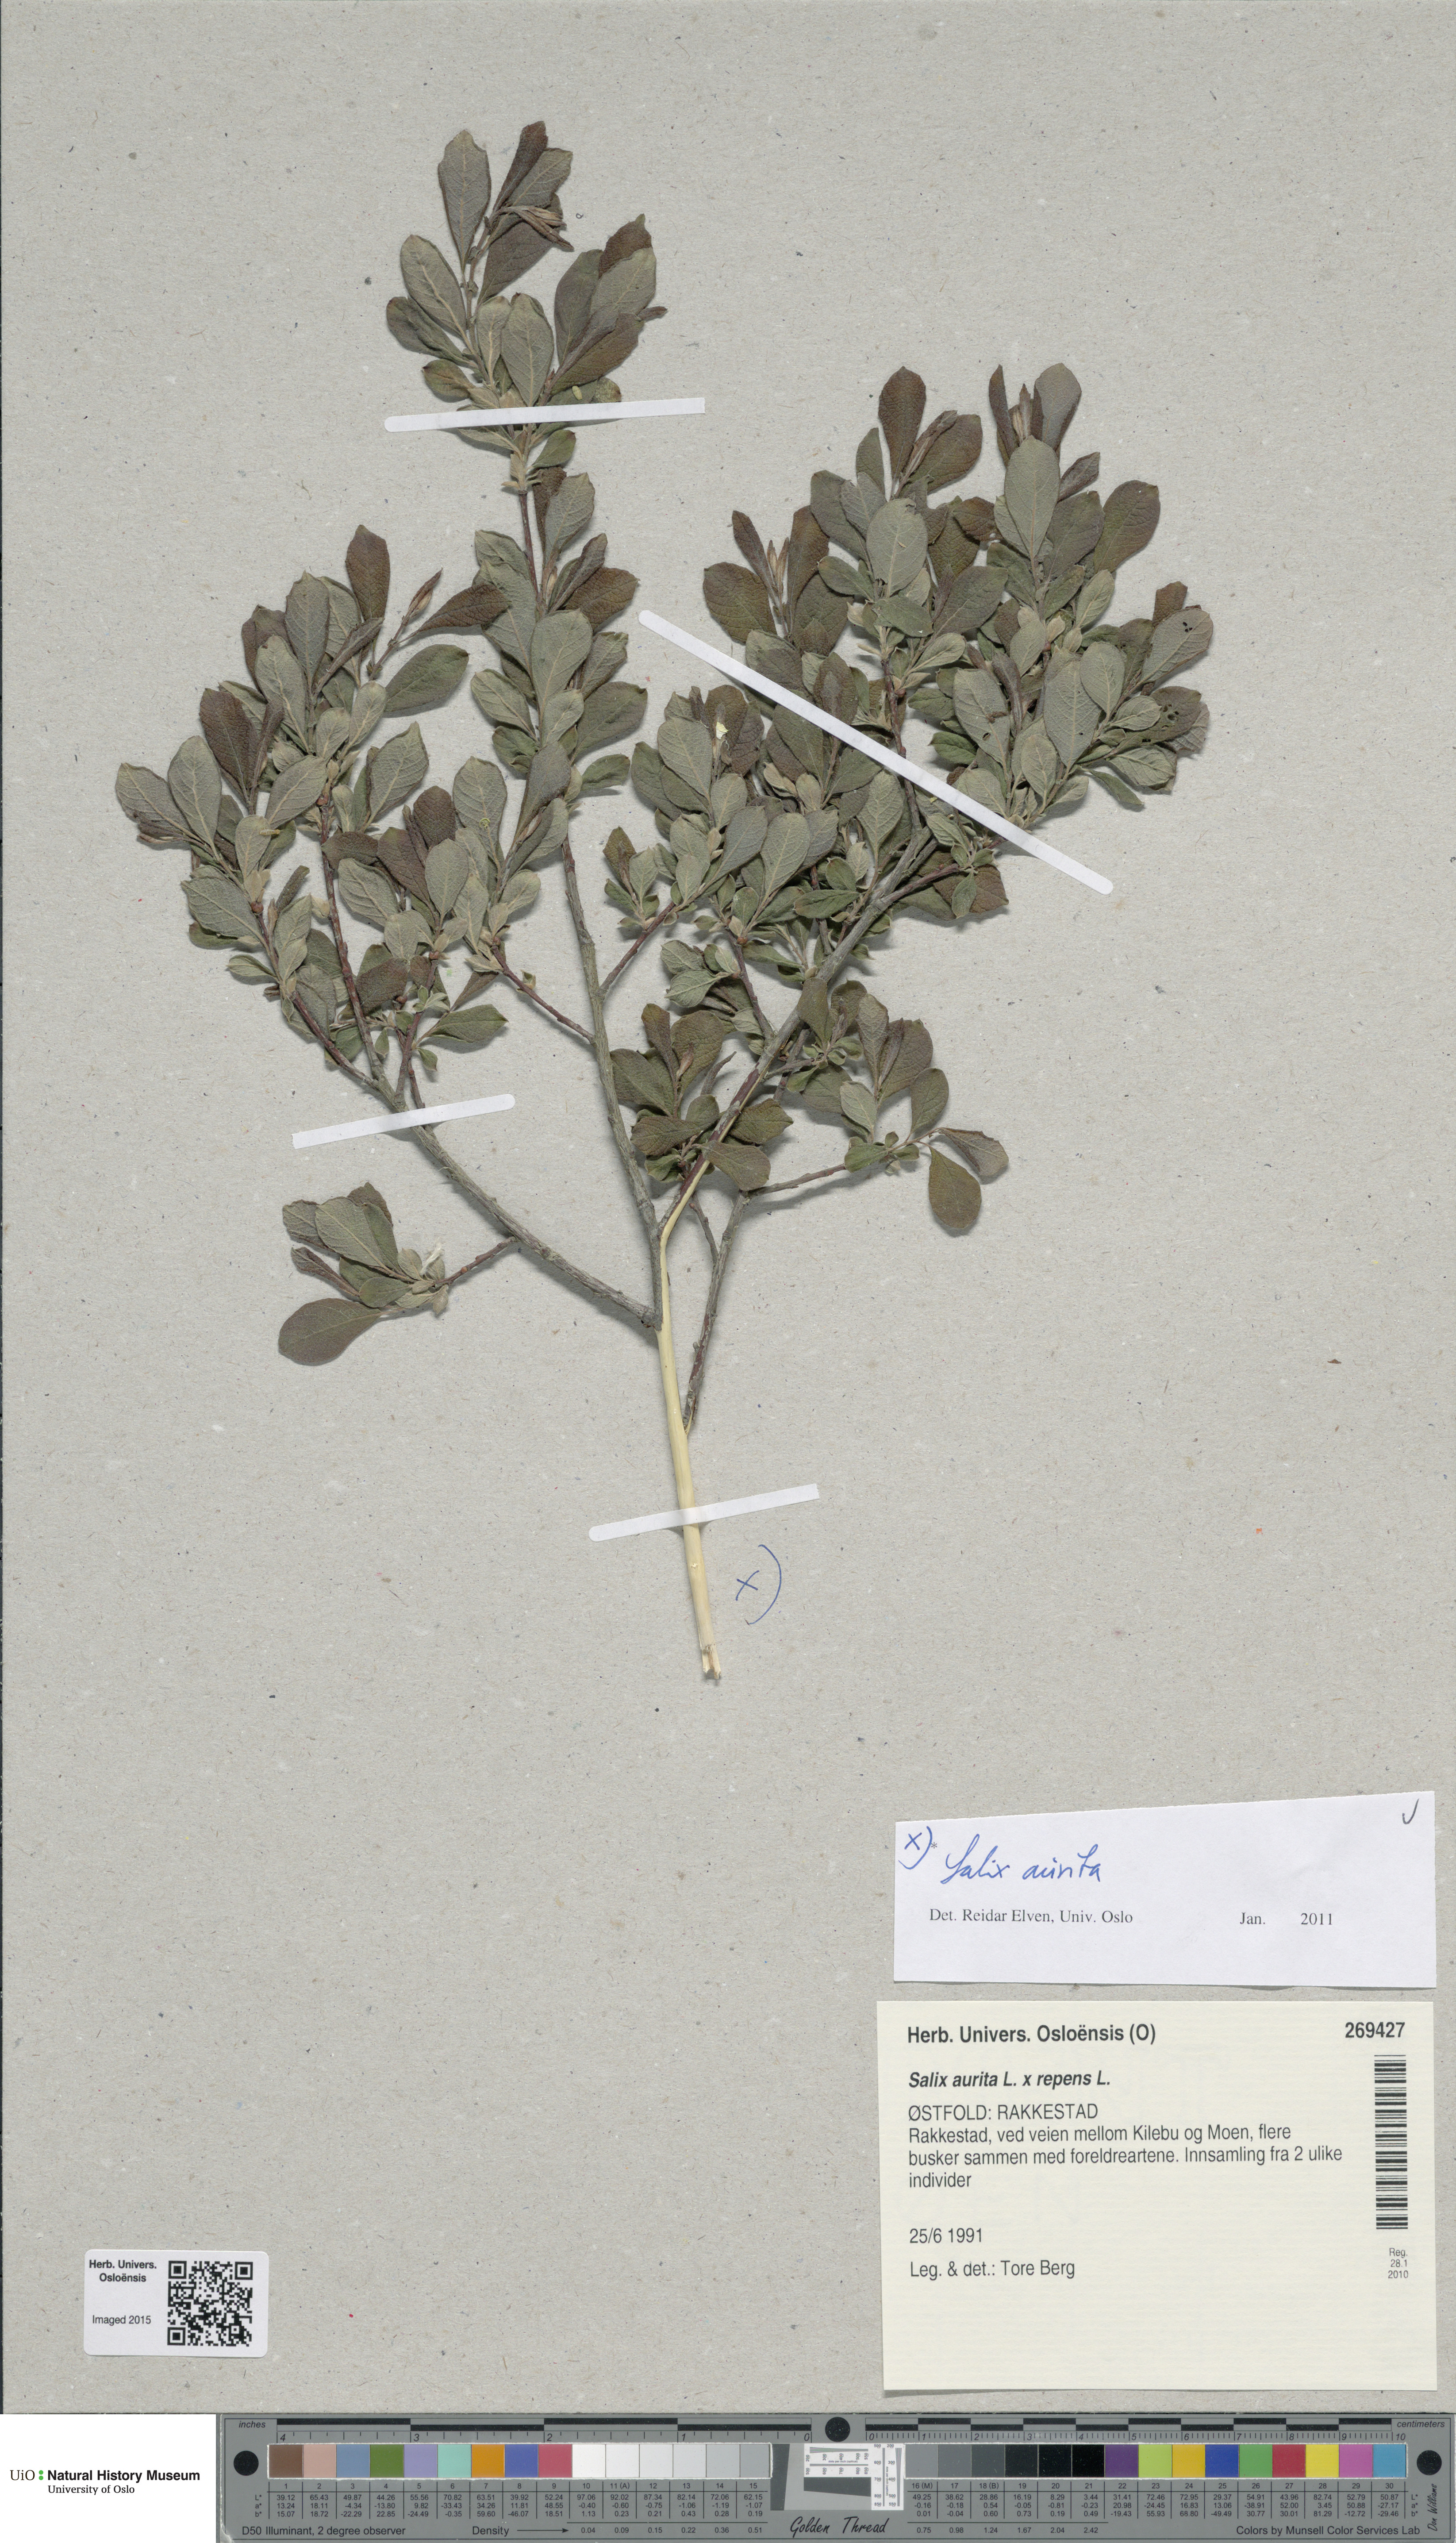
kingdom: Plantae
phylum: Tracheophyta
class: Magnoliopsida
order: Malpighiales
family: Salicaceae
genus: Salix
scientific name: Salix aurita
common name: Eared willow
